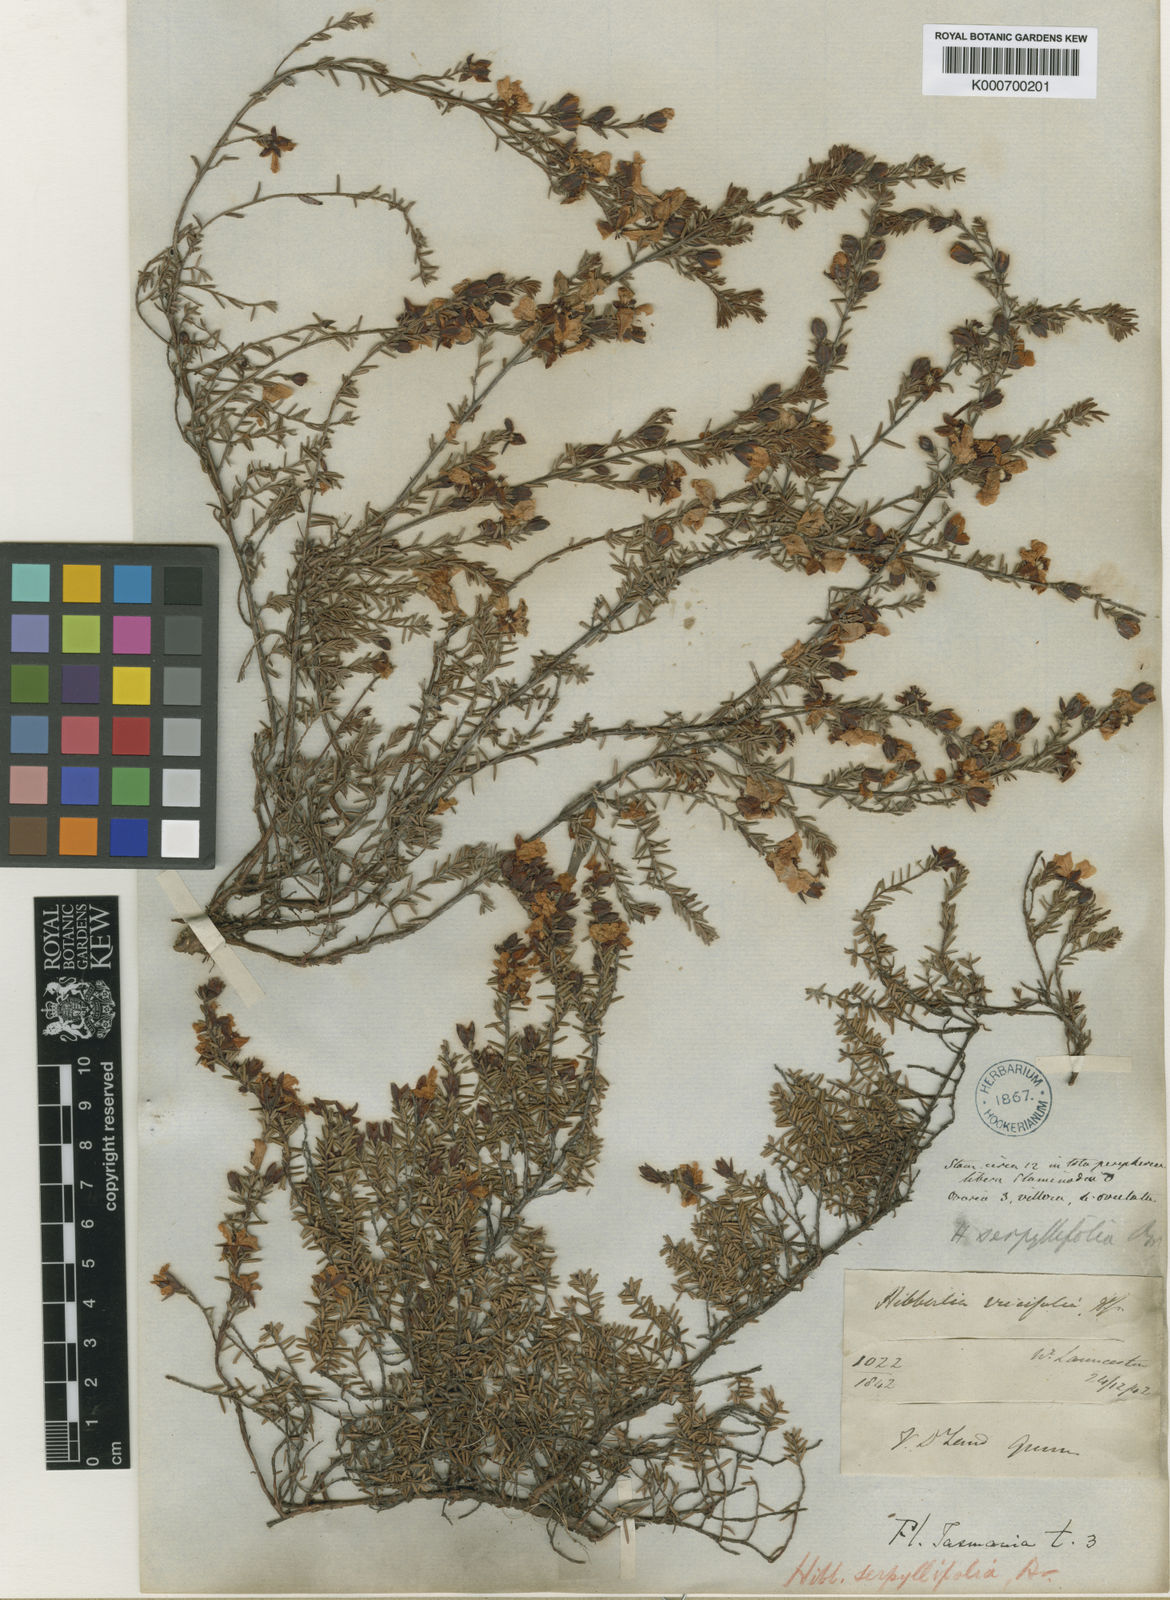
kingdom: Plantae
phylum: Tracheophyta
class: Magnoliopsida
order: Dilleniales
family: Dilleniaceae
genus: Hibbertia
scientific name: Hibbertia serpyllifolia
